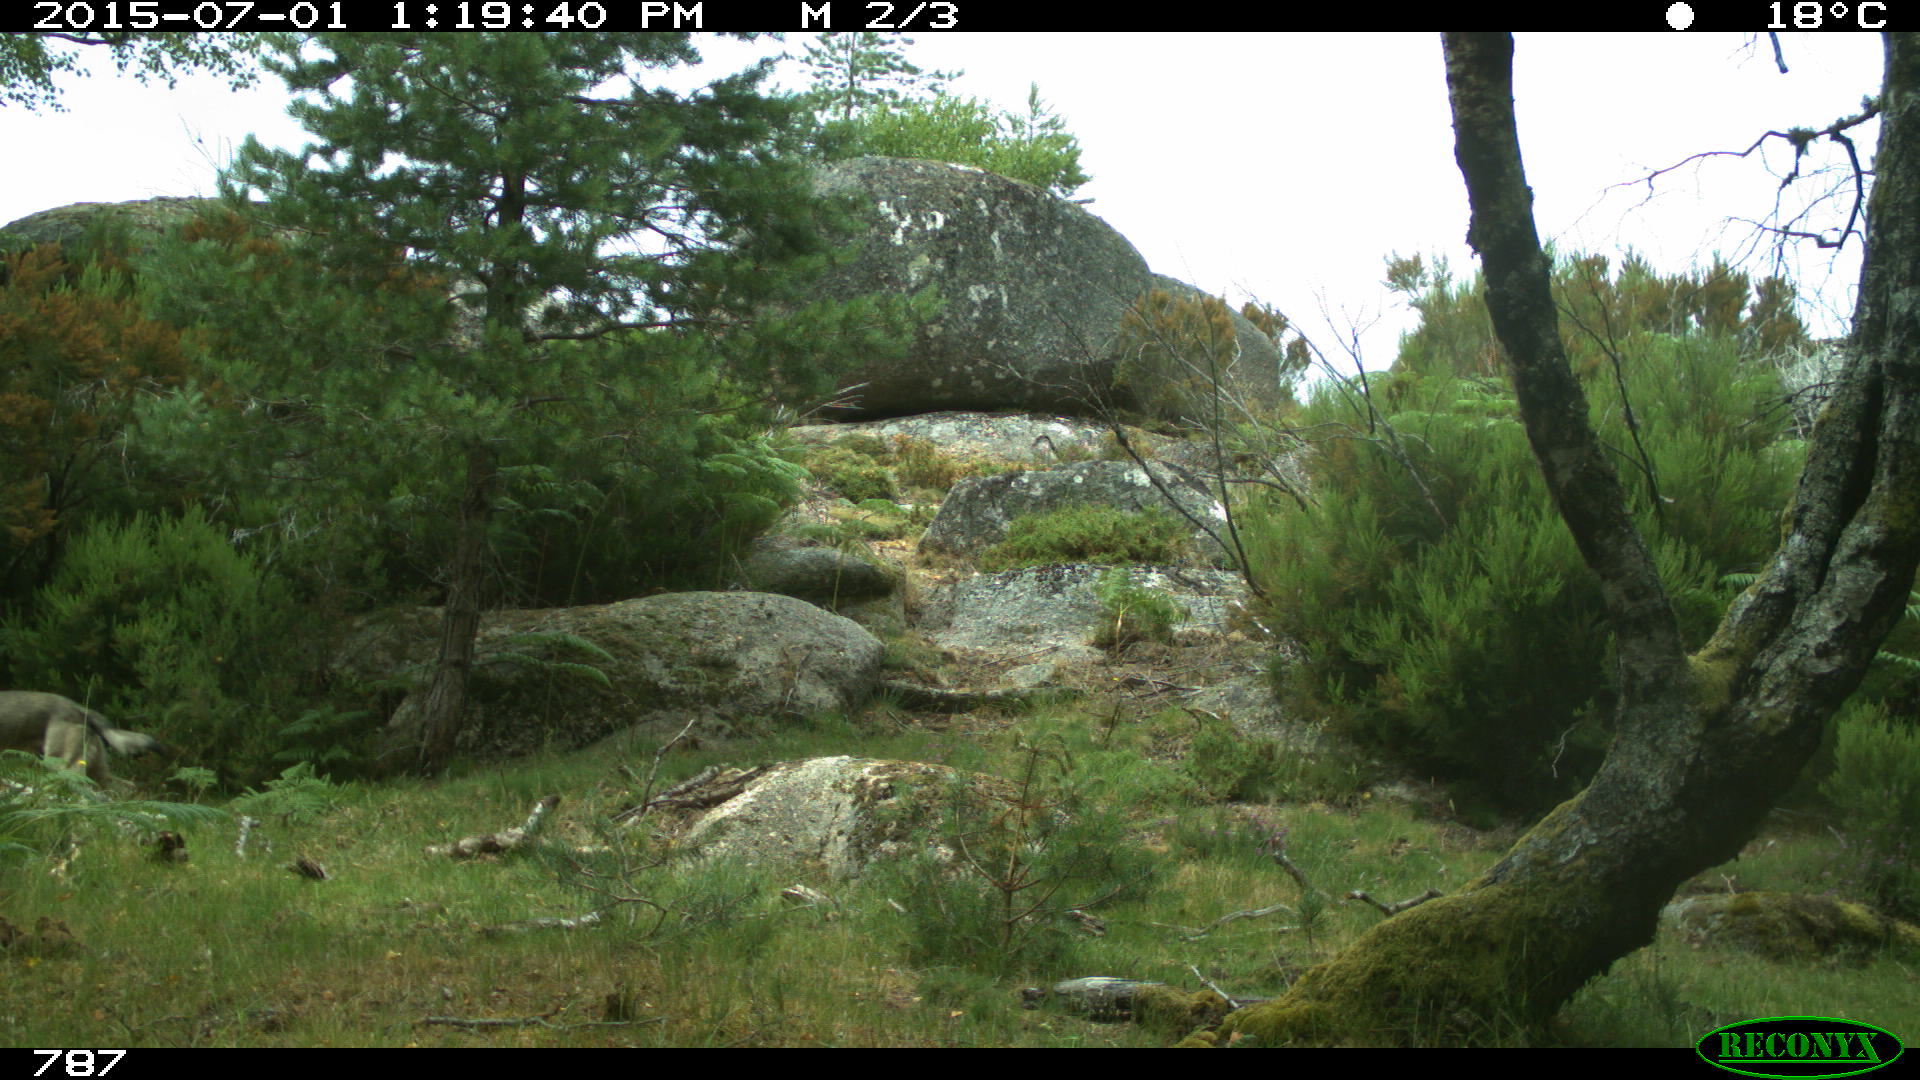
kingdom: Animalia
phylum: Chordata
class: Mammalia
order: Carnivora
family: Canidae
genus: Canis
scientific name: Canis lupus
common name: Gray wolf
